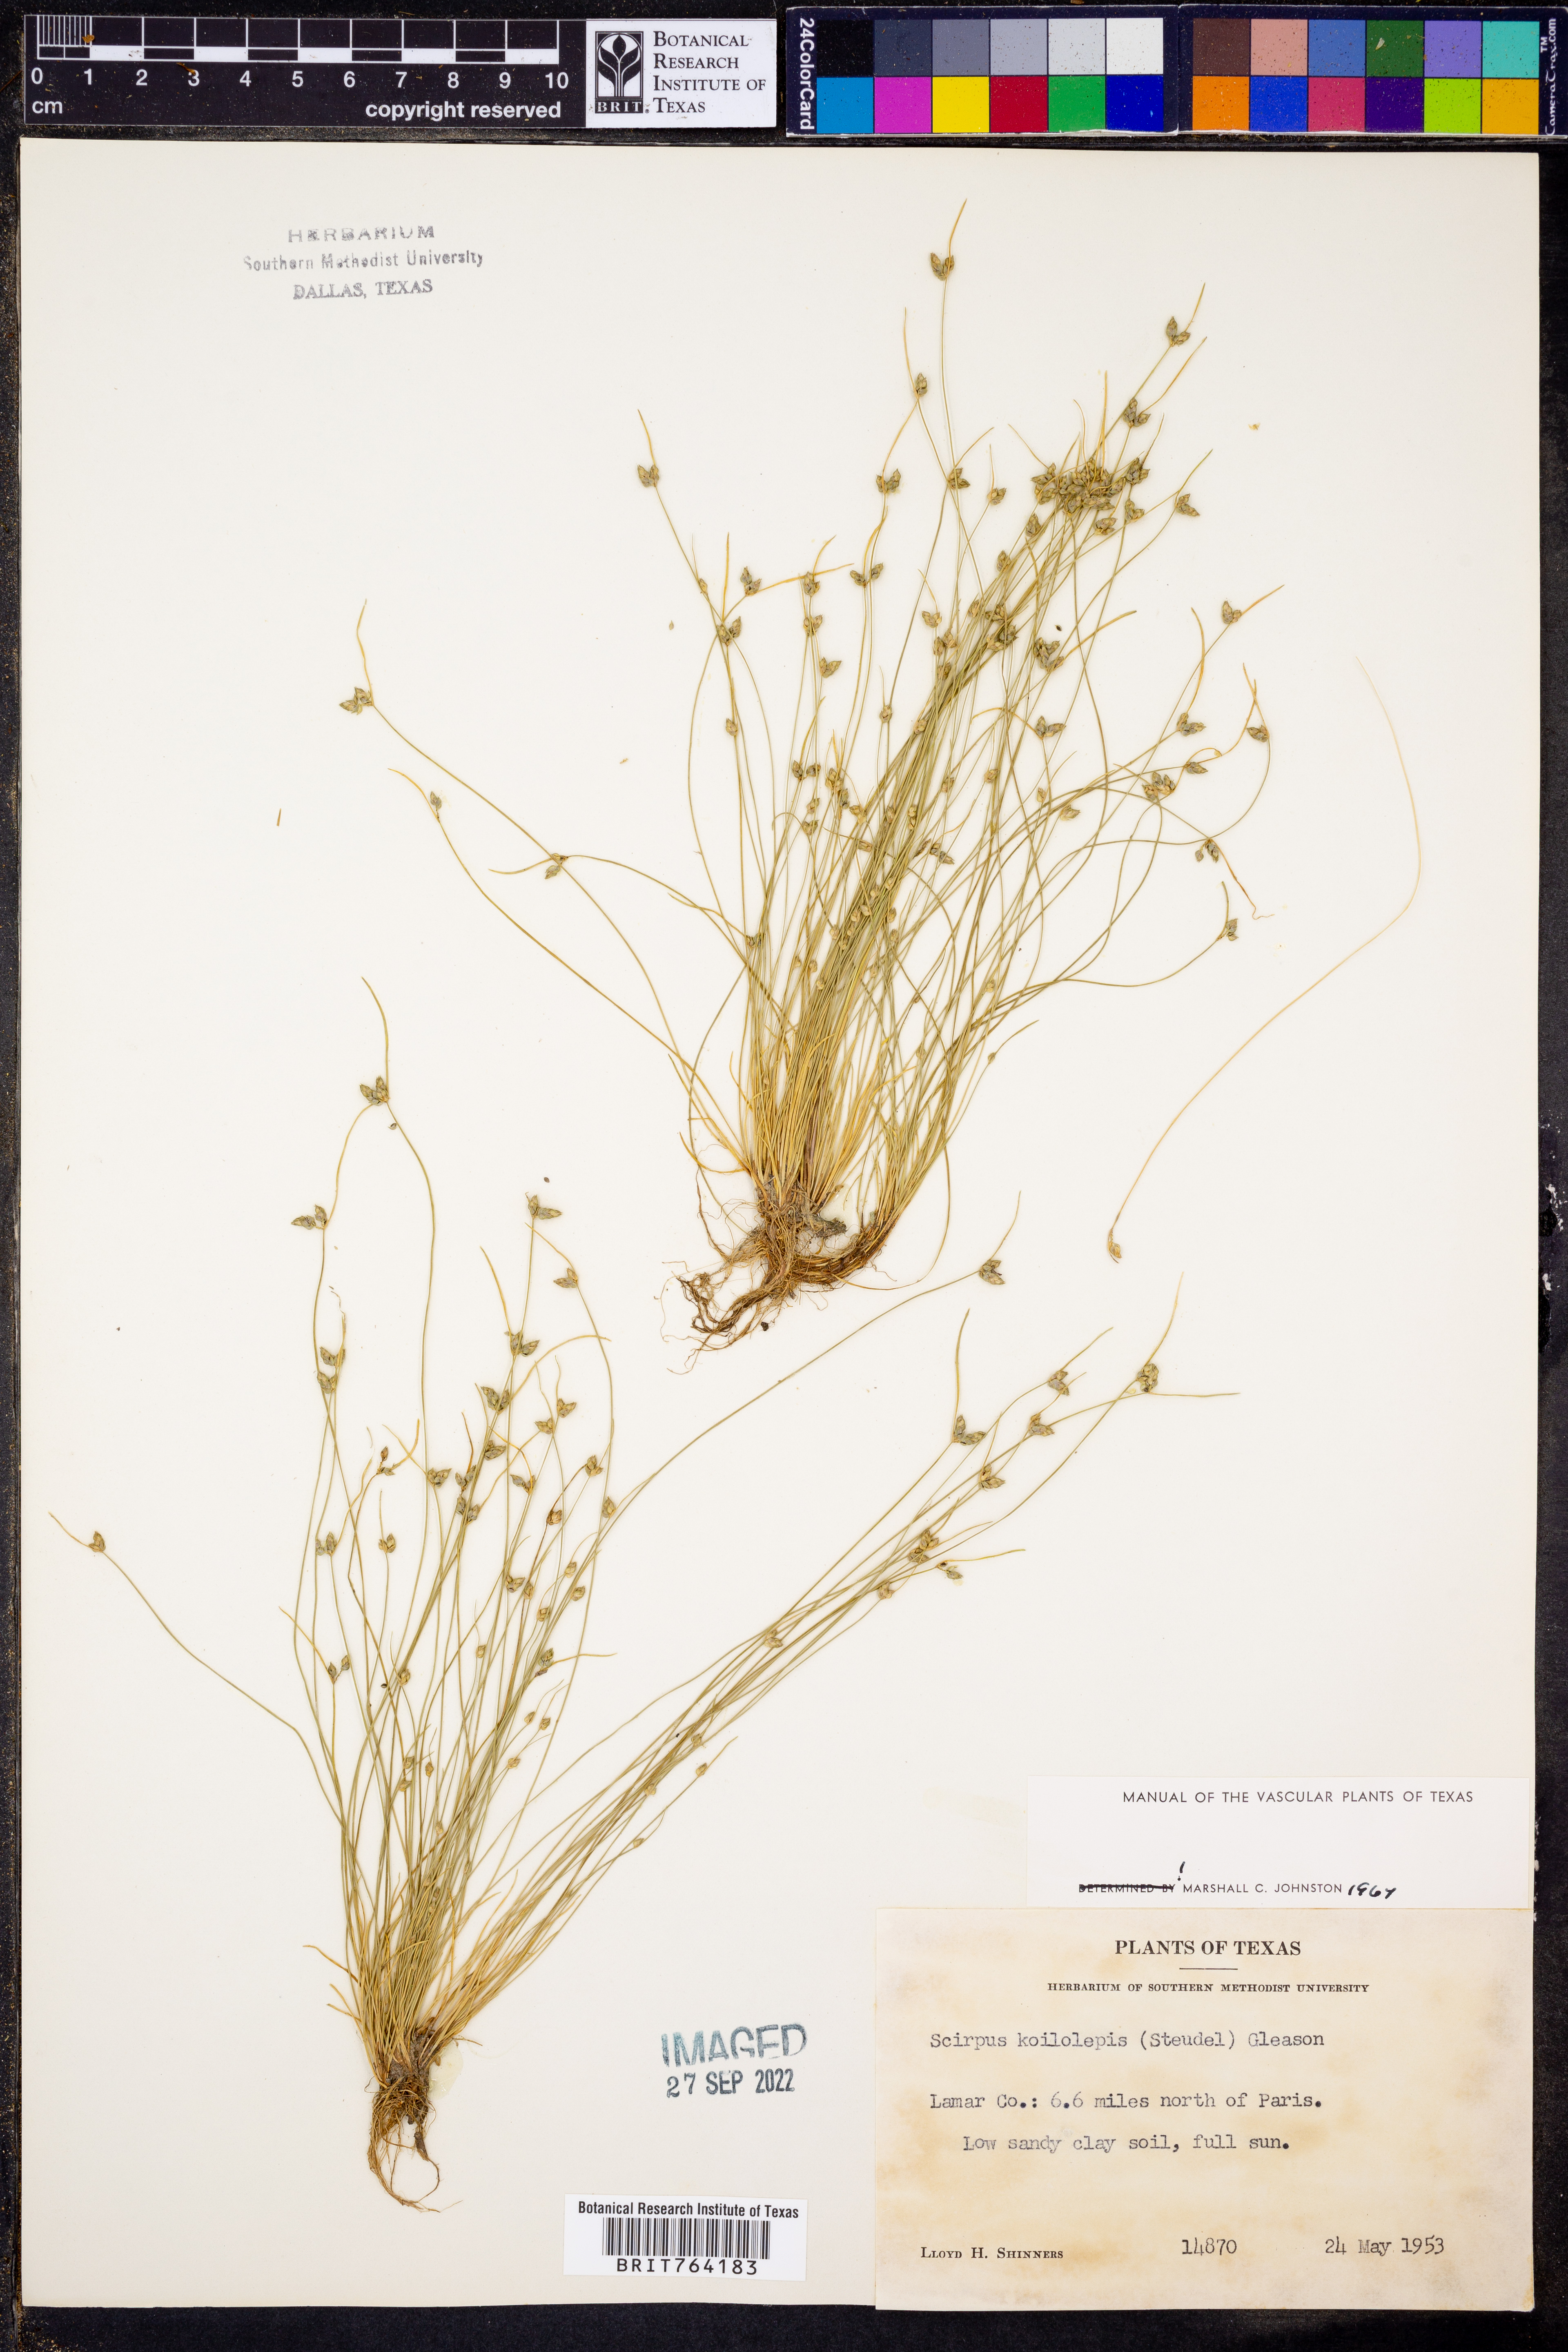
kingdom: Plantae
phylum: Tracheophyta
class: Liliopsida
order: Poales
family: Cyperaceae
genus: Isolepis
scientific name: Isolepis carinata
